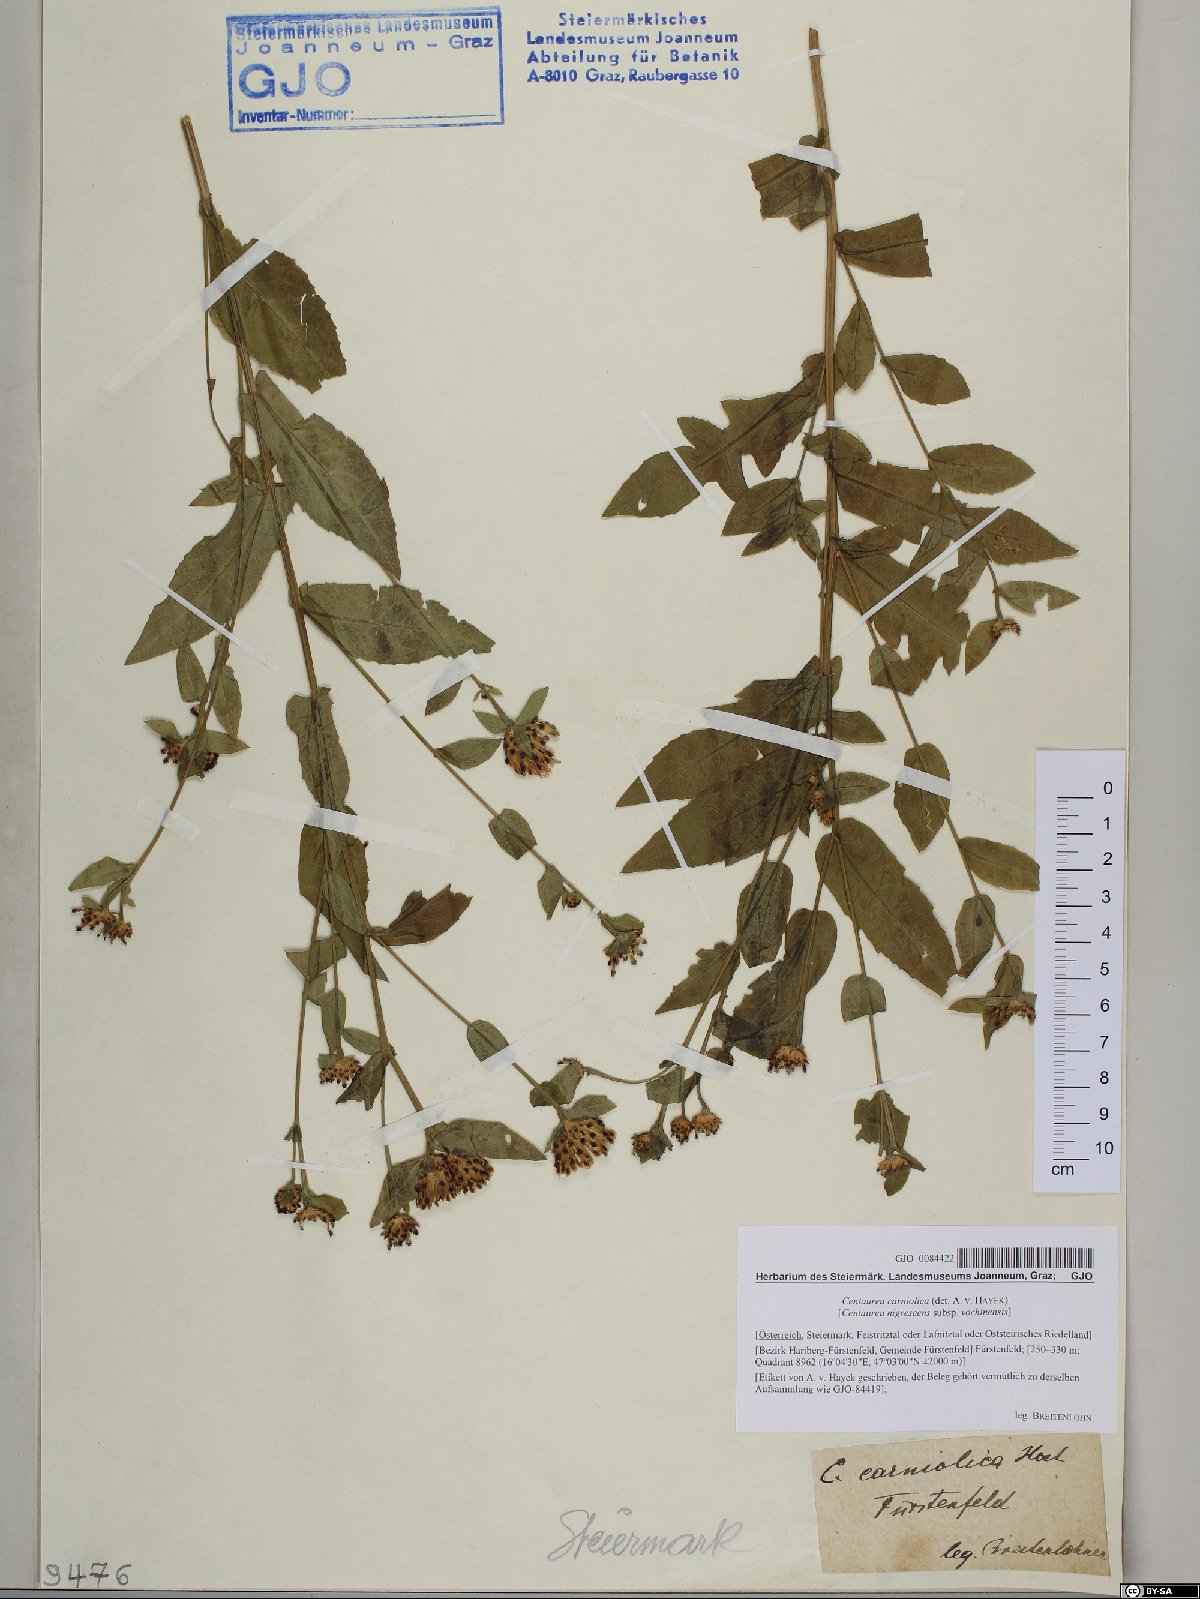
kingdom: Plantae
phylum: Tracheophyta
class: Magnoliopsida
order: Asterales
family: Asteraceae
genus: Centaurea
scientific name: Centaurea carniolica
